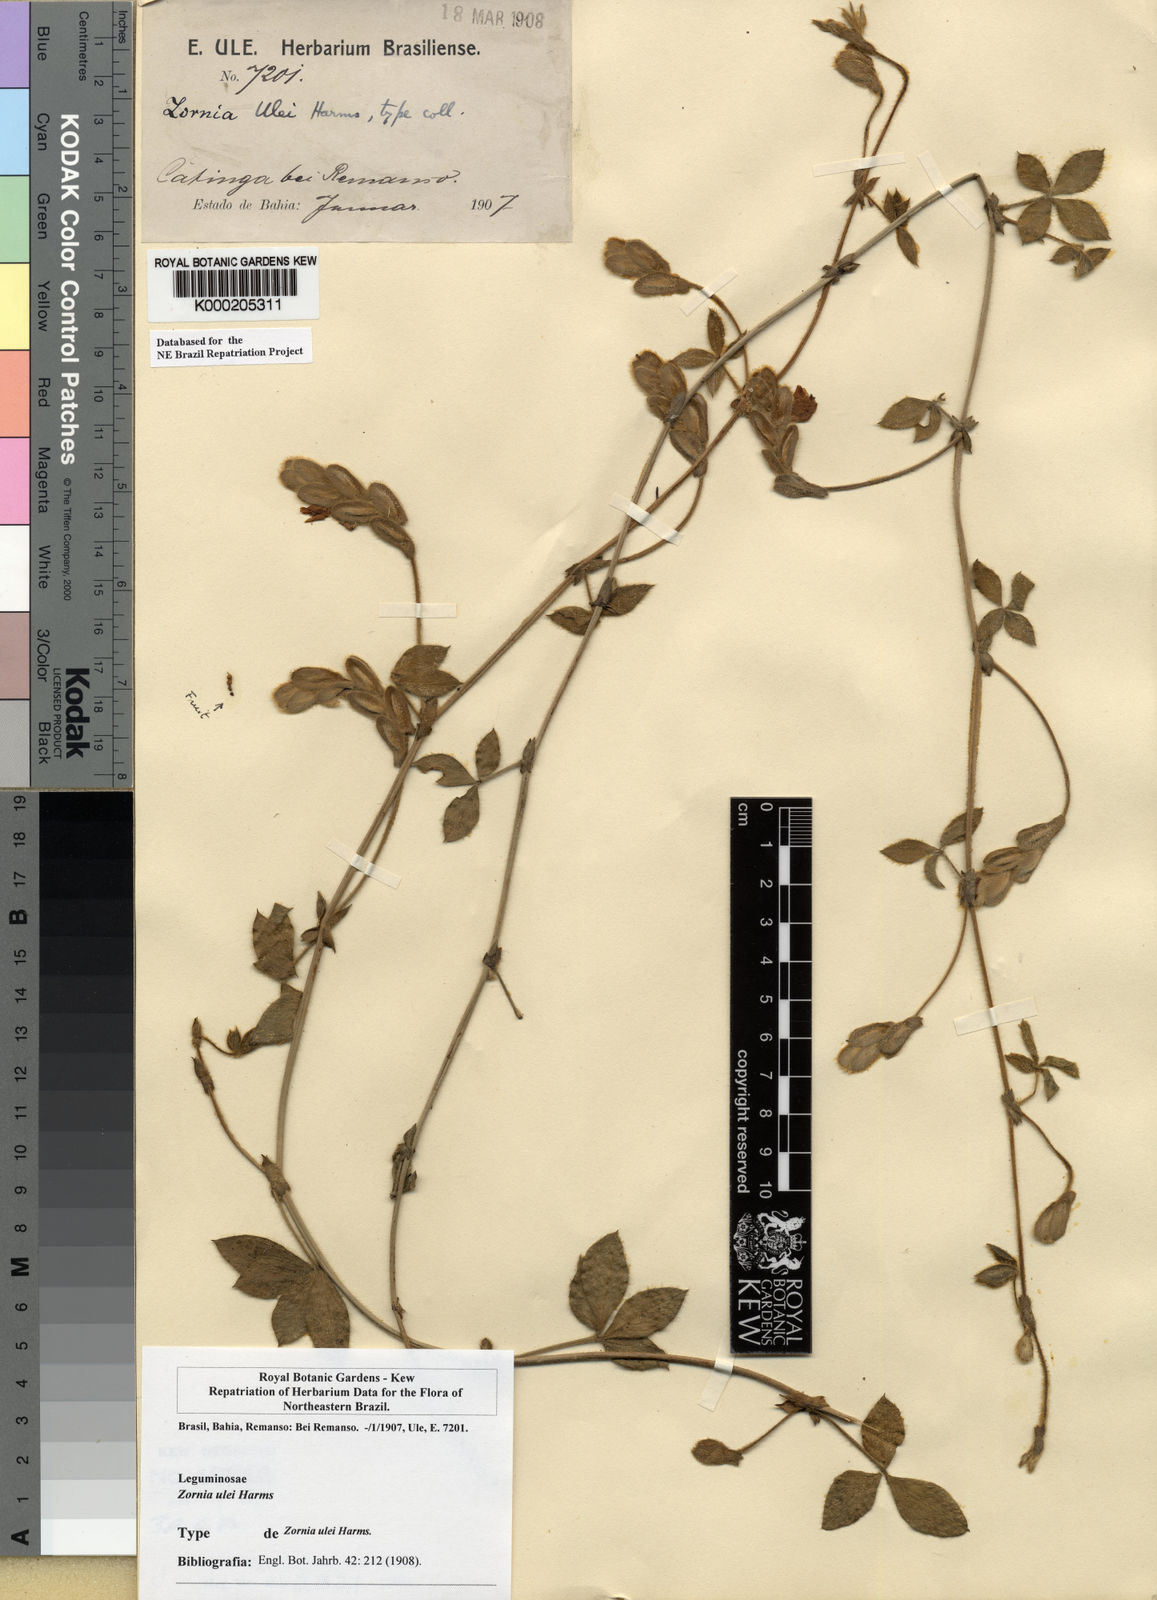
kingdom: Plantae
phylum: Tracheophyta
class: Magnoliopsida
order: Fabales
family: Fabaceae
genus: Zornia
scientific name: Zornia ulei
